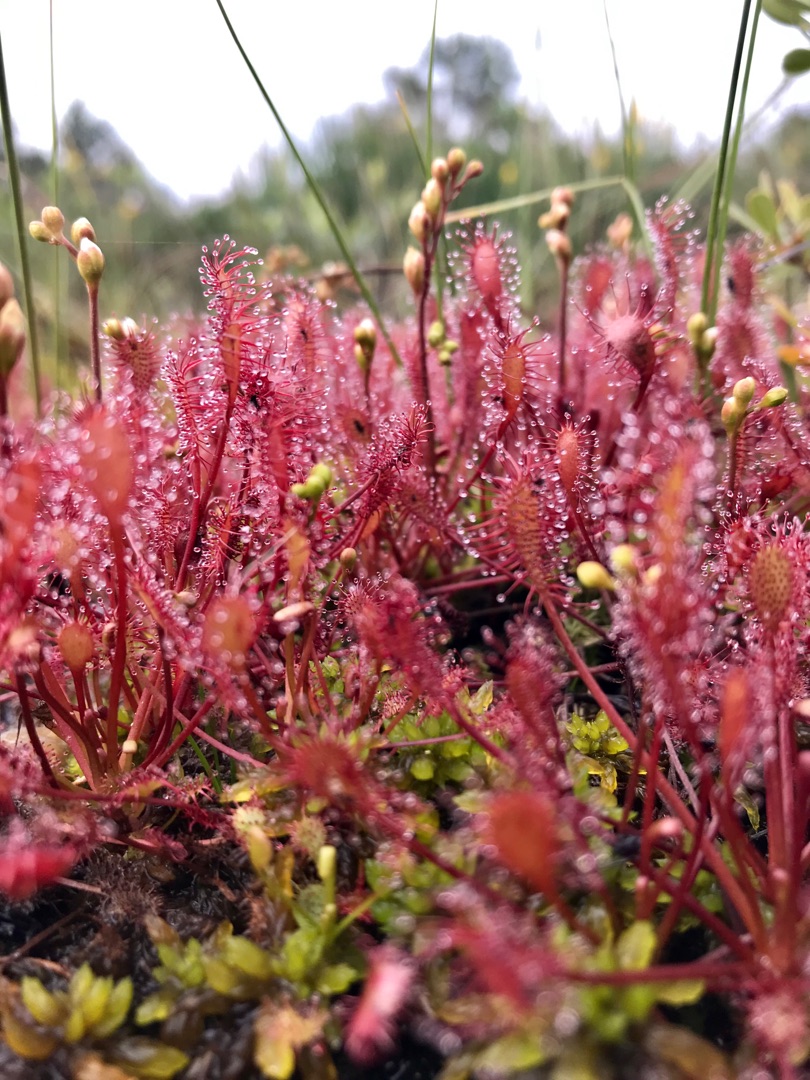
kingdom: Plantae
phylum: Tracheophyta
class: Magnoliopsida
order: Caryophyllales
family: Droseraceae
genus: Drosera
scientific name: Drosera intermedia
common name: Liden soldug
